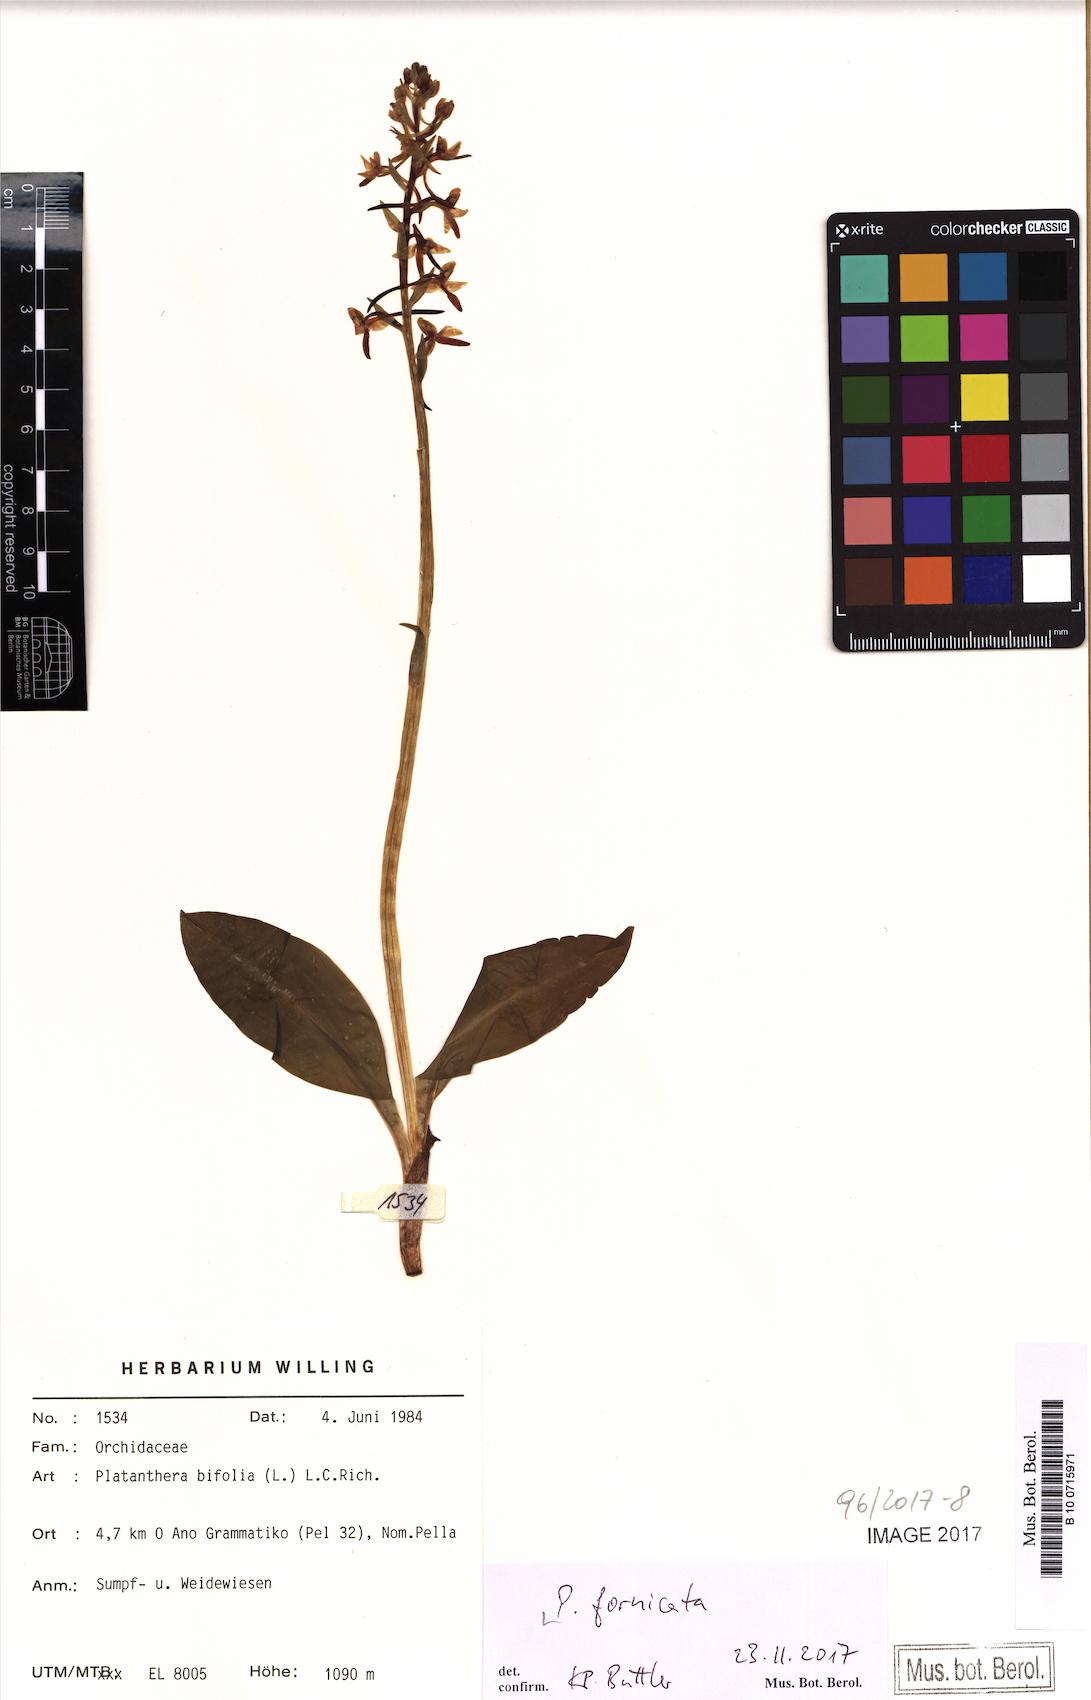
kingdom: Plantae
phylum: Tracheophyta
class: Liliopsida
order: Asparagales
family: Orchidaceae
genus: Platanthera
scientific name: Platanthera bifolia
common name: Lesser butterfly-orchid
